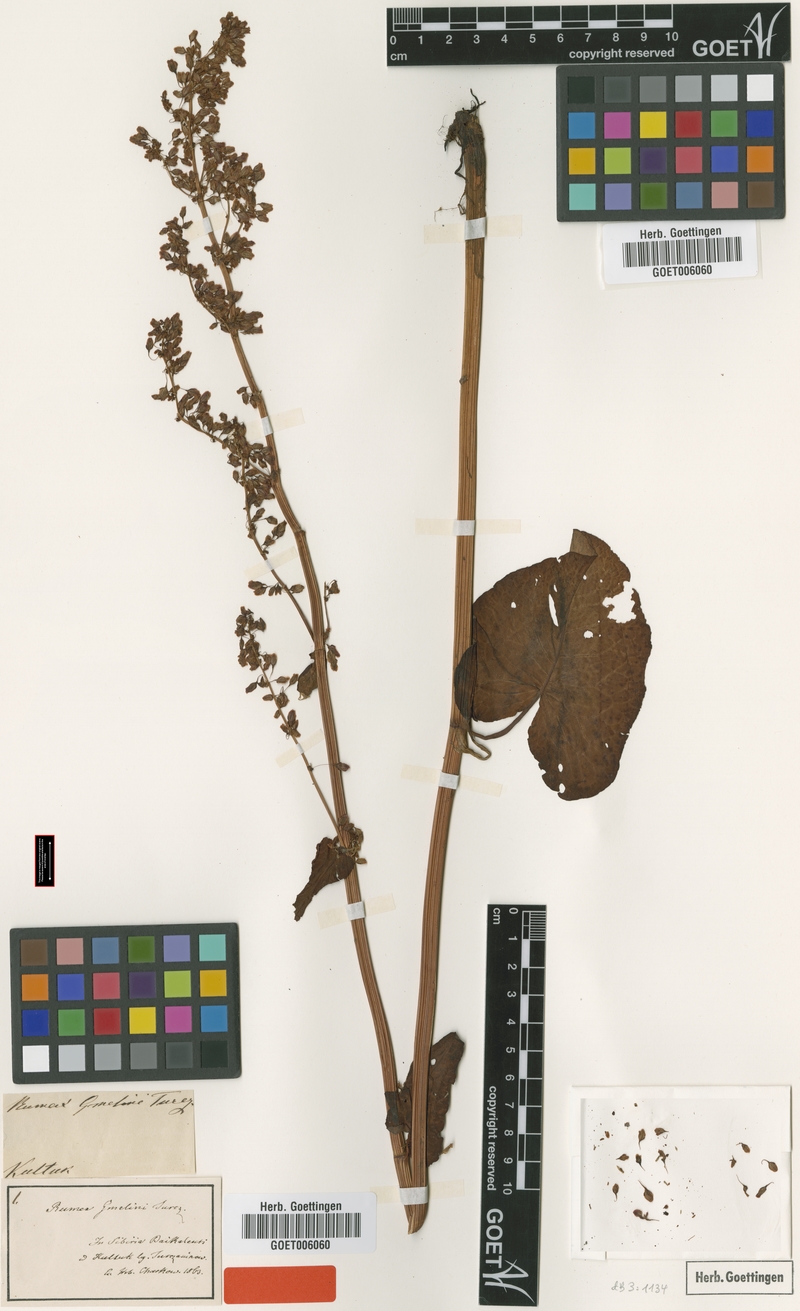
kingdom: Plantae
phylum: Tracheophyta
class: Magnoliopsida
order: Caryophyllales
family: Polygonaceae
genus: Rumex
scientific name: Rumex gmelinii
